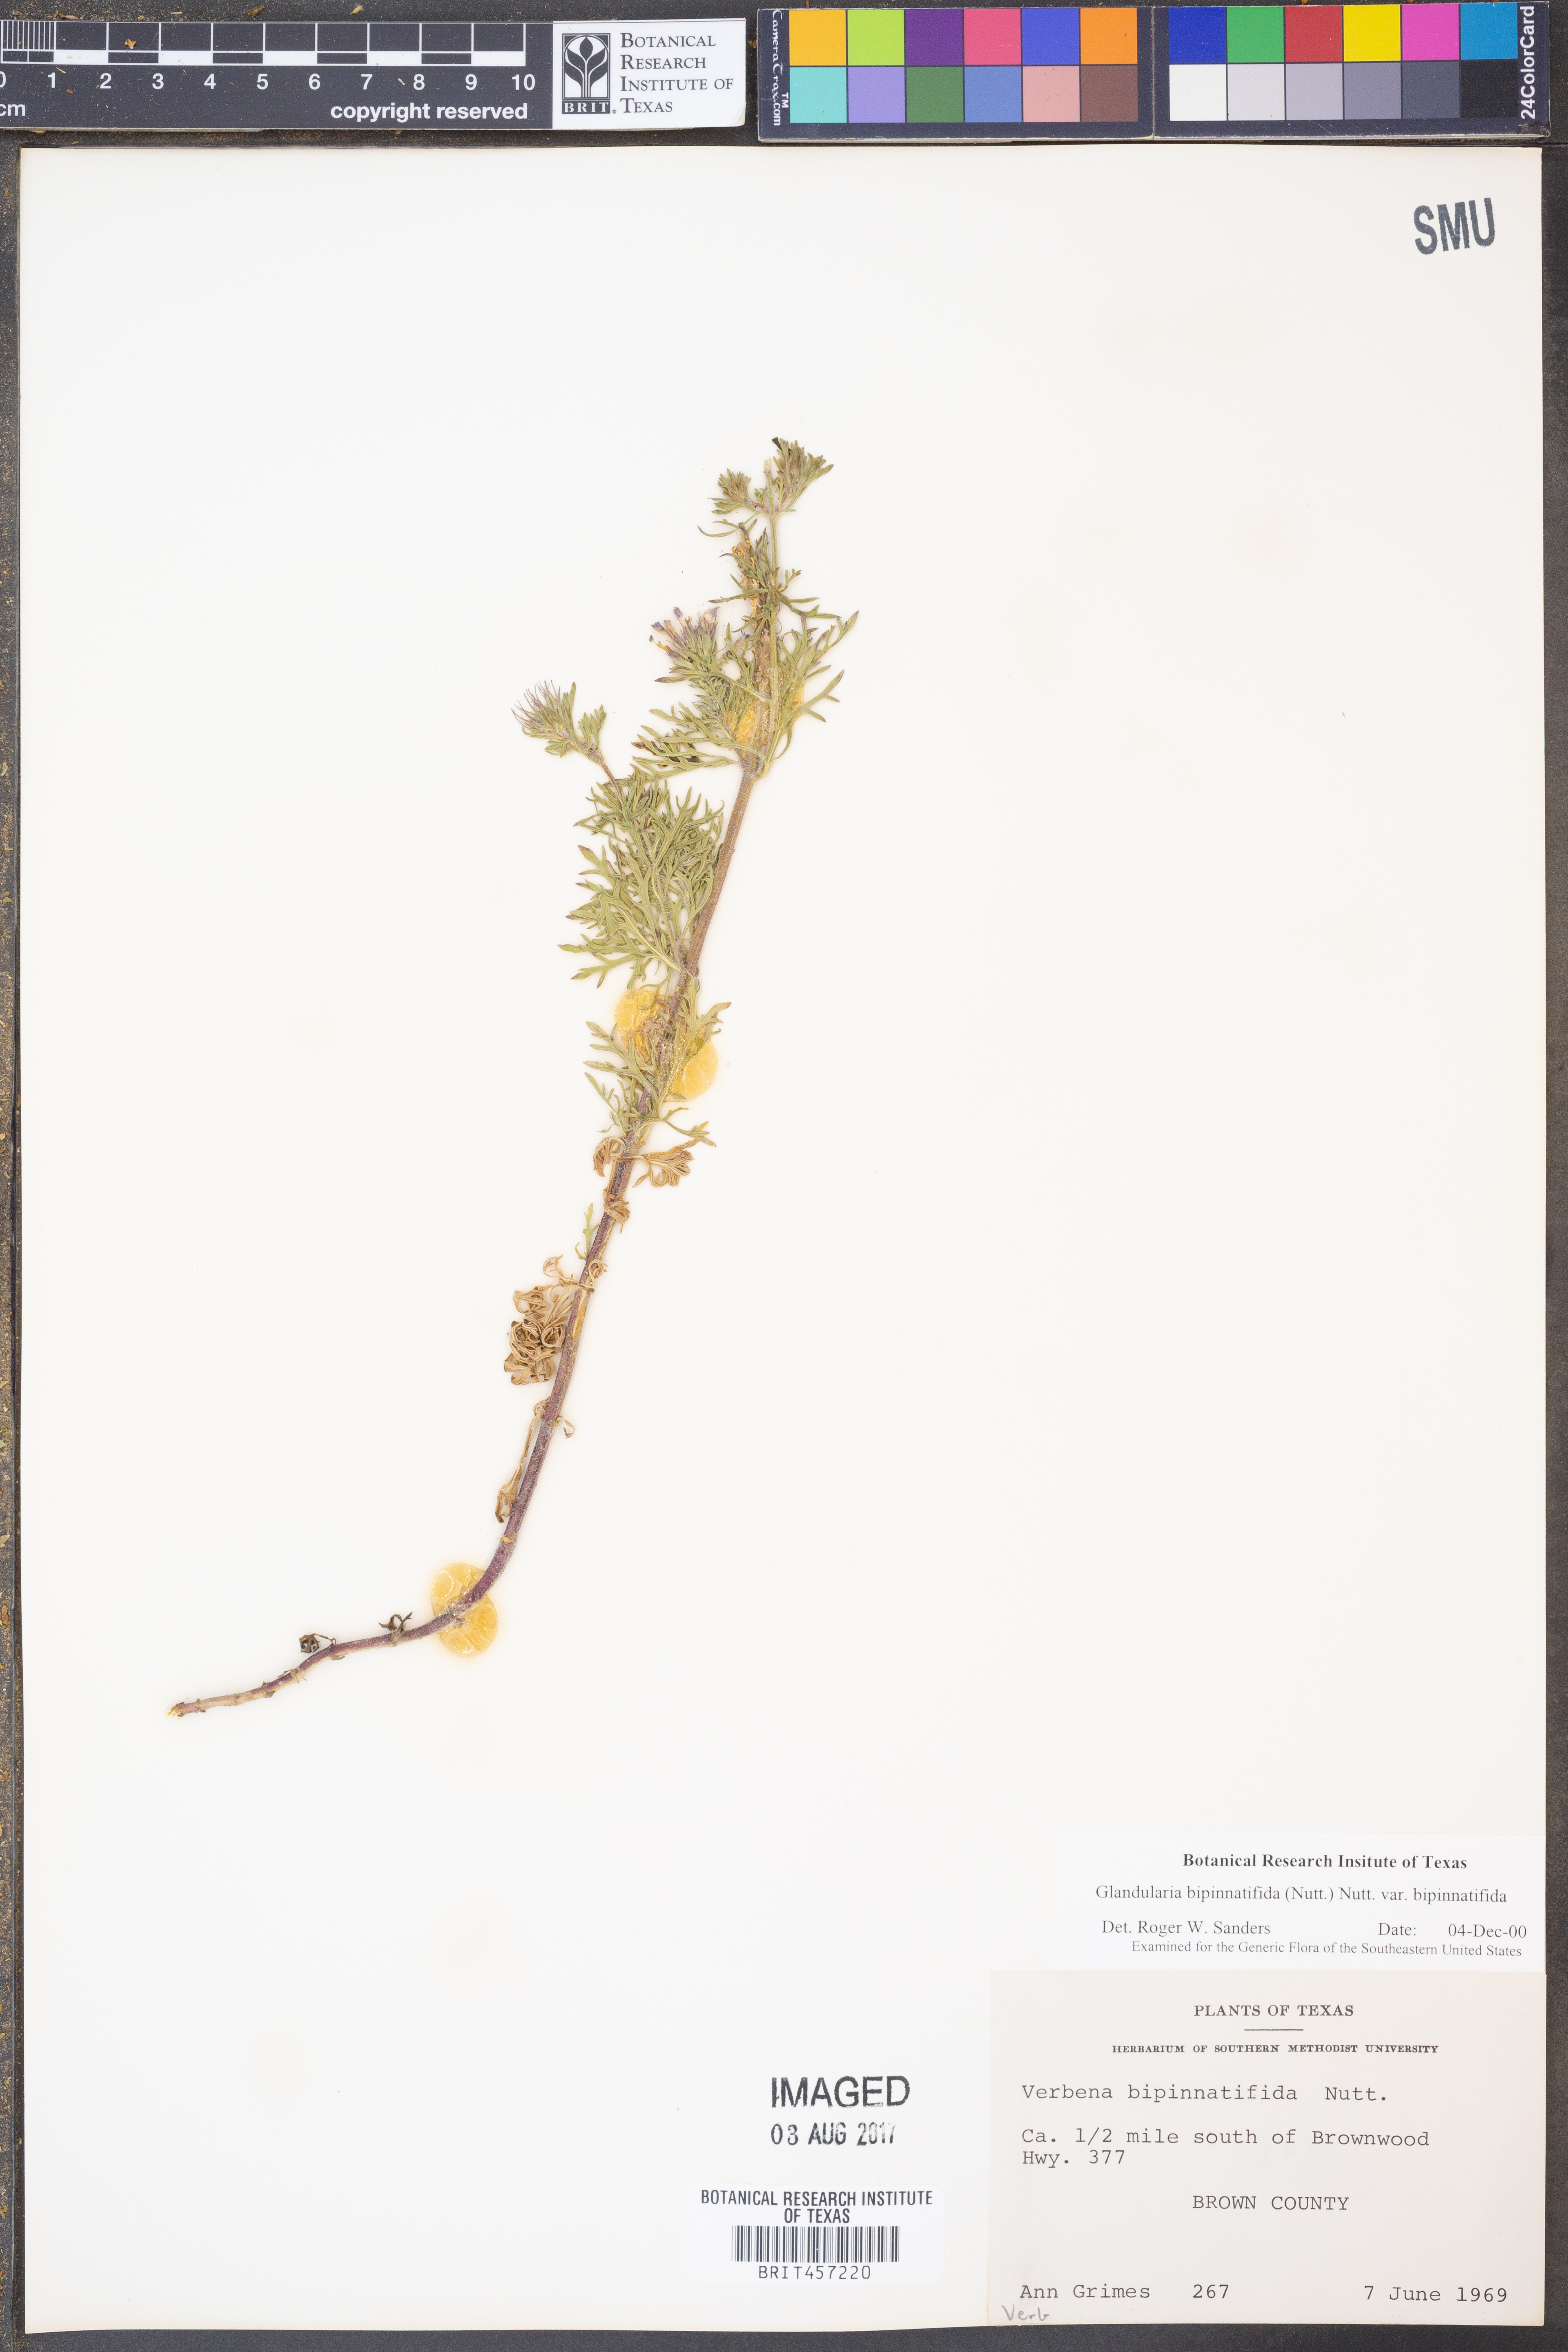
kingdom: Plantae
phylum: Tracheophyta
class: Magnoliopsida
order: Lamiales
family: Verbenaceae
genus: Verbena
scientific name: Verbena bipinnatifida
